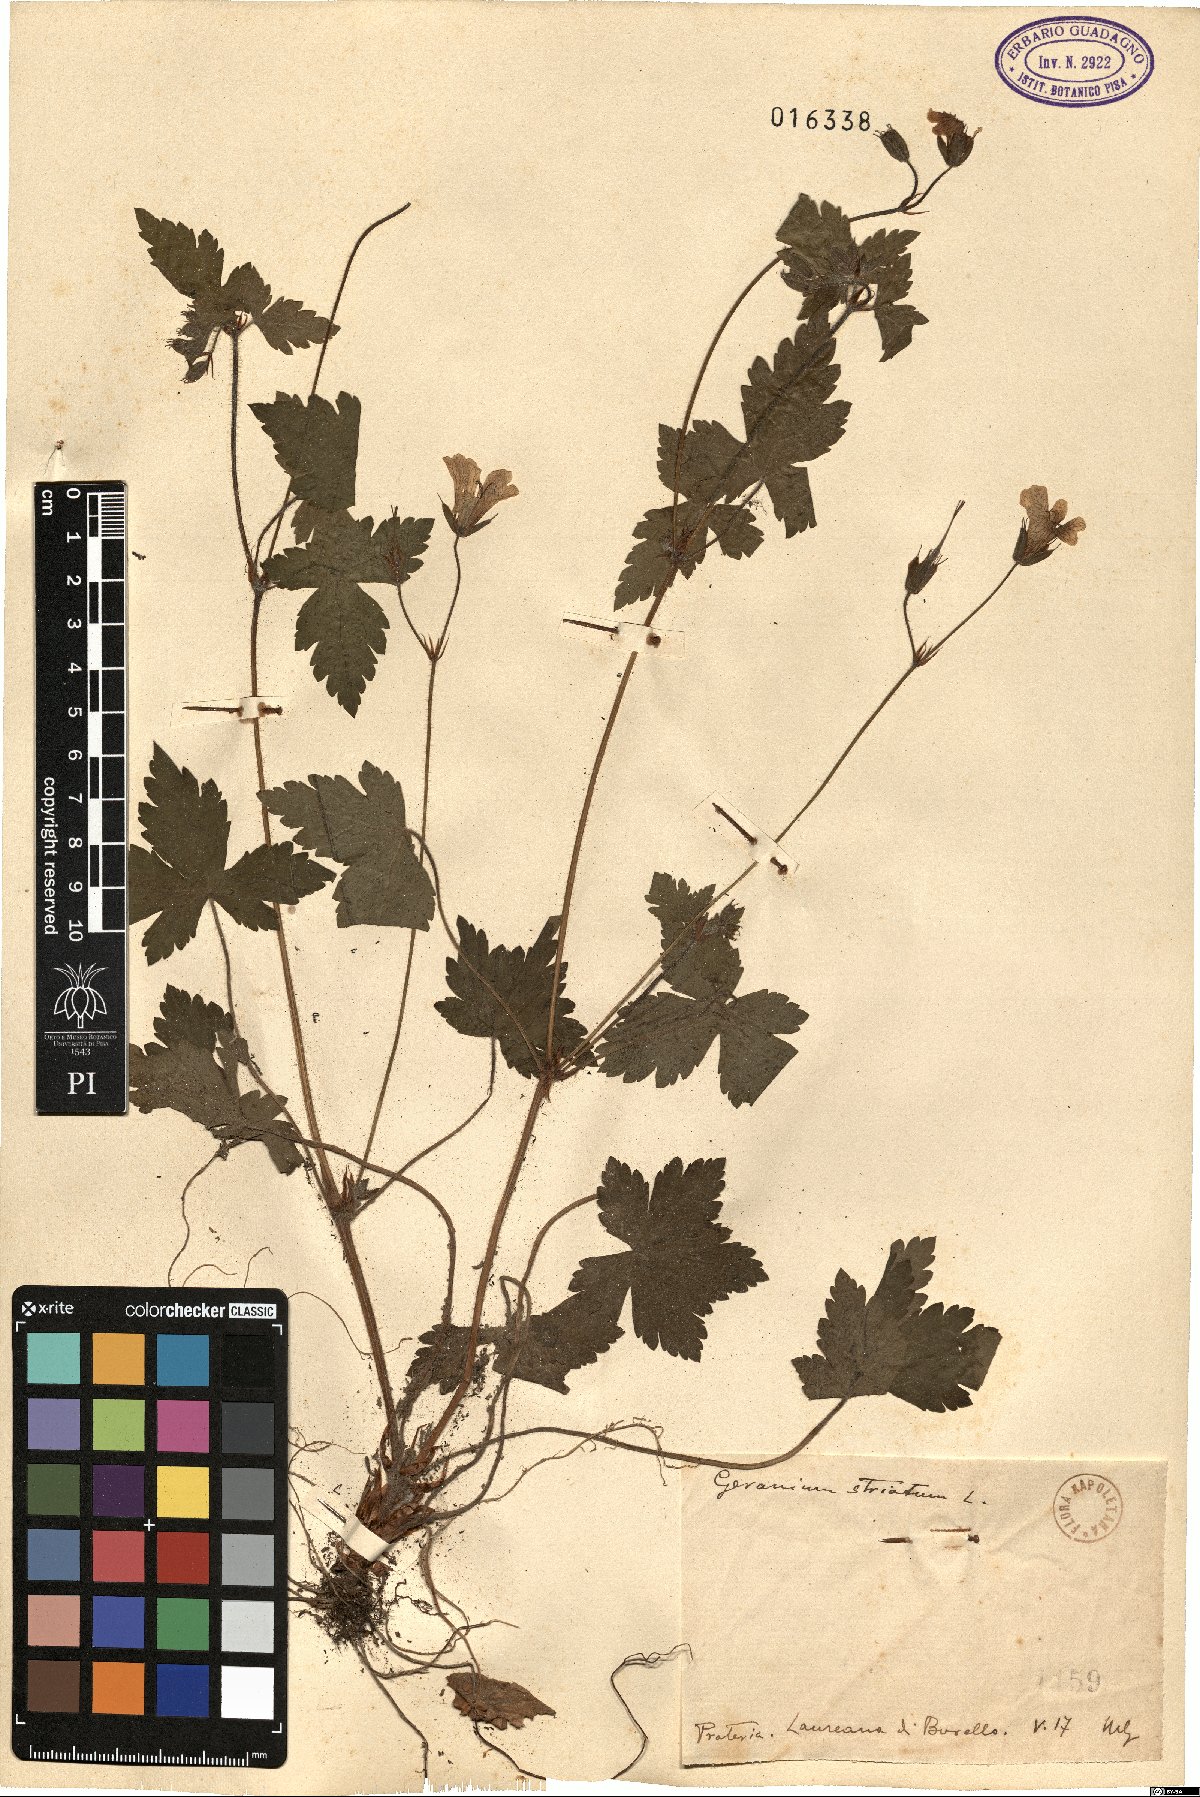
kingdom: Plantae
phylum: Tracheophyta
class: Magnoliopsida
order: Geraniales
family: Geraniaceae
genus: Geranium
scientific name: Geranium versicolor
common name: Pencilled crane's-bill
